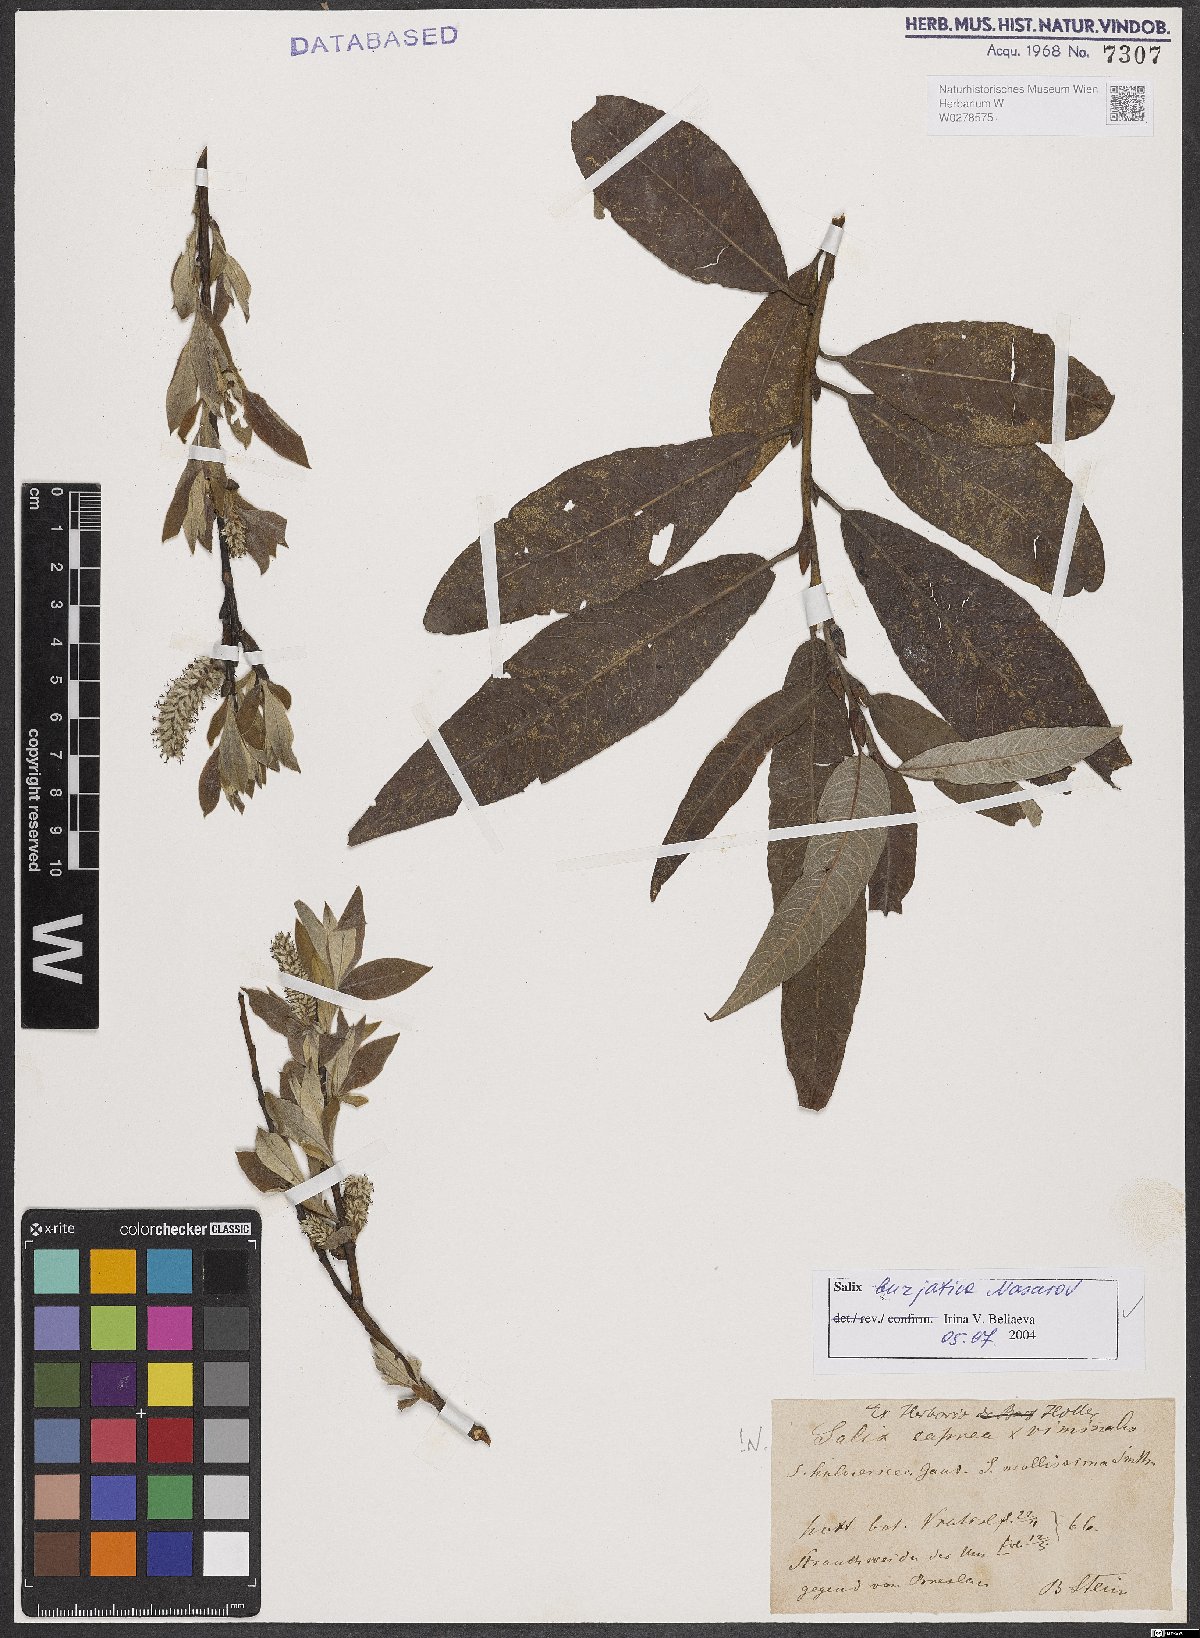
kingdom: Plantae
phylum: Tracheophyta
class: Magnoliopsida
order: Malpighiales
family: Salicaceae
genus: Salix
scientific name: Salix gmelinii
